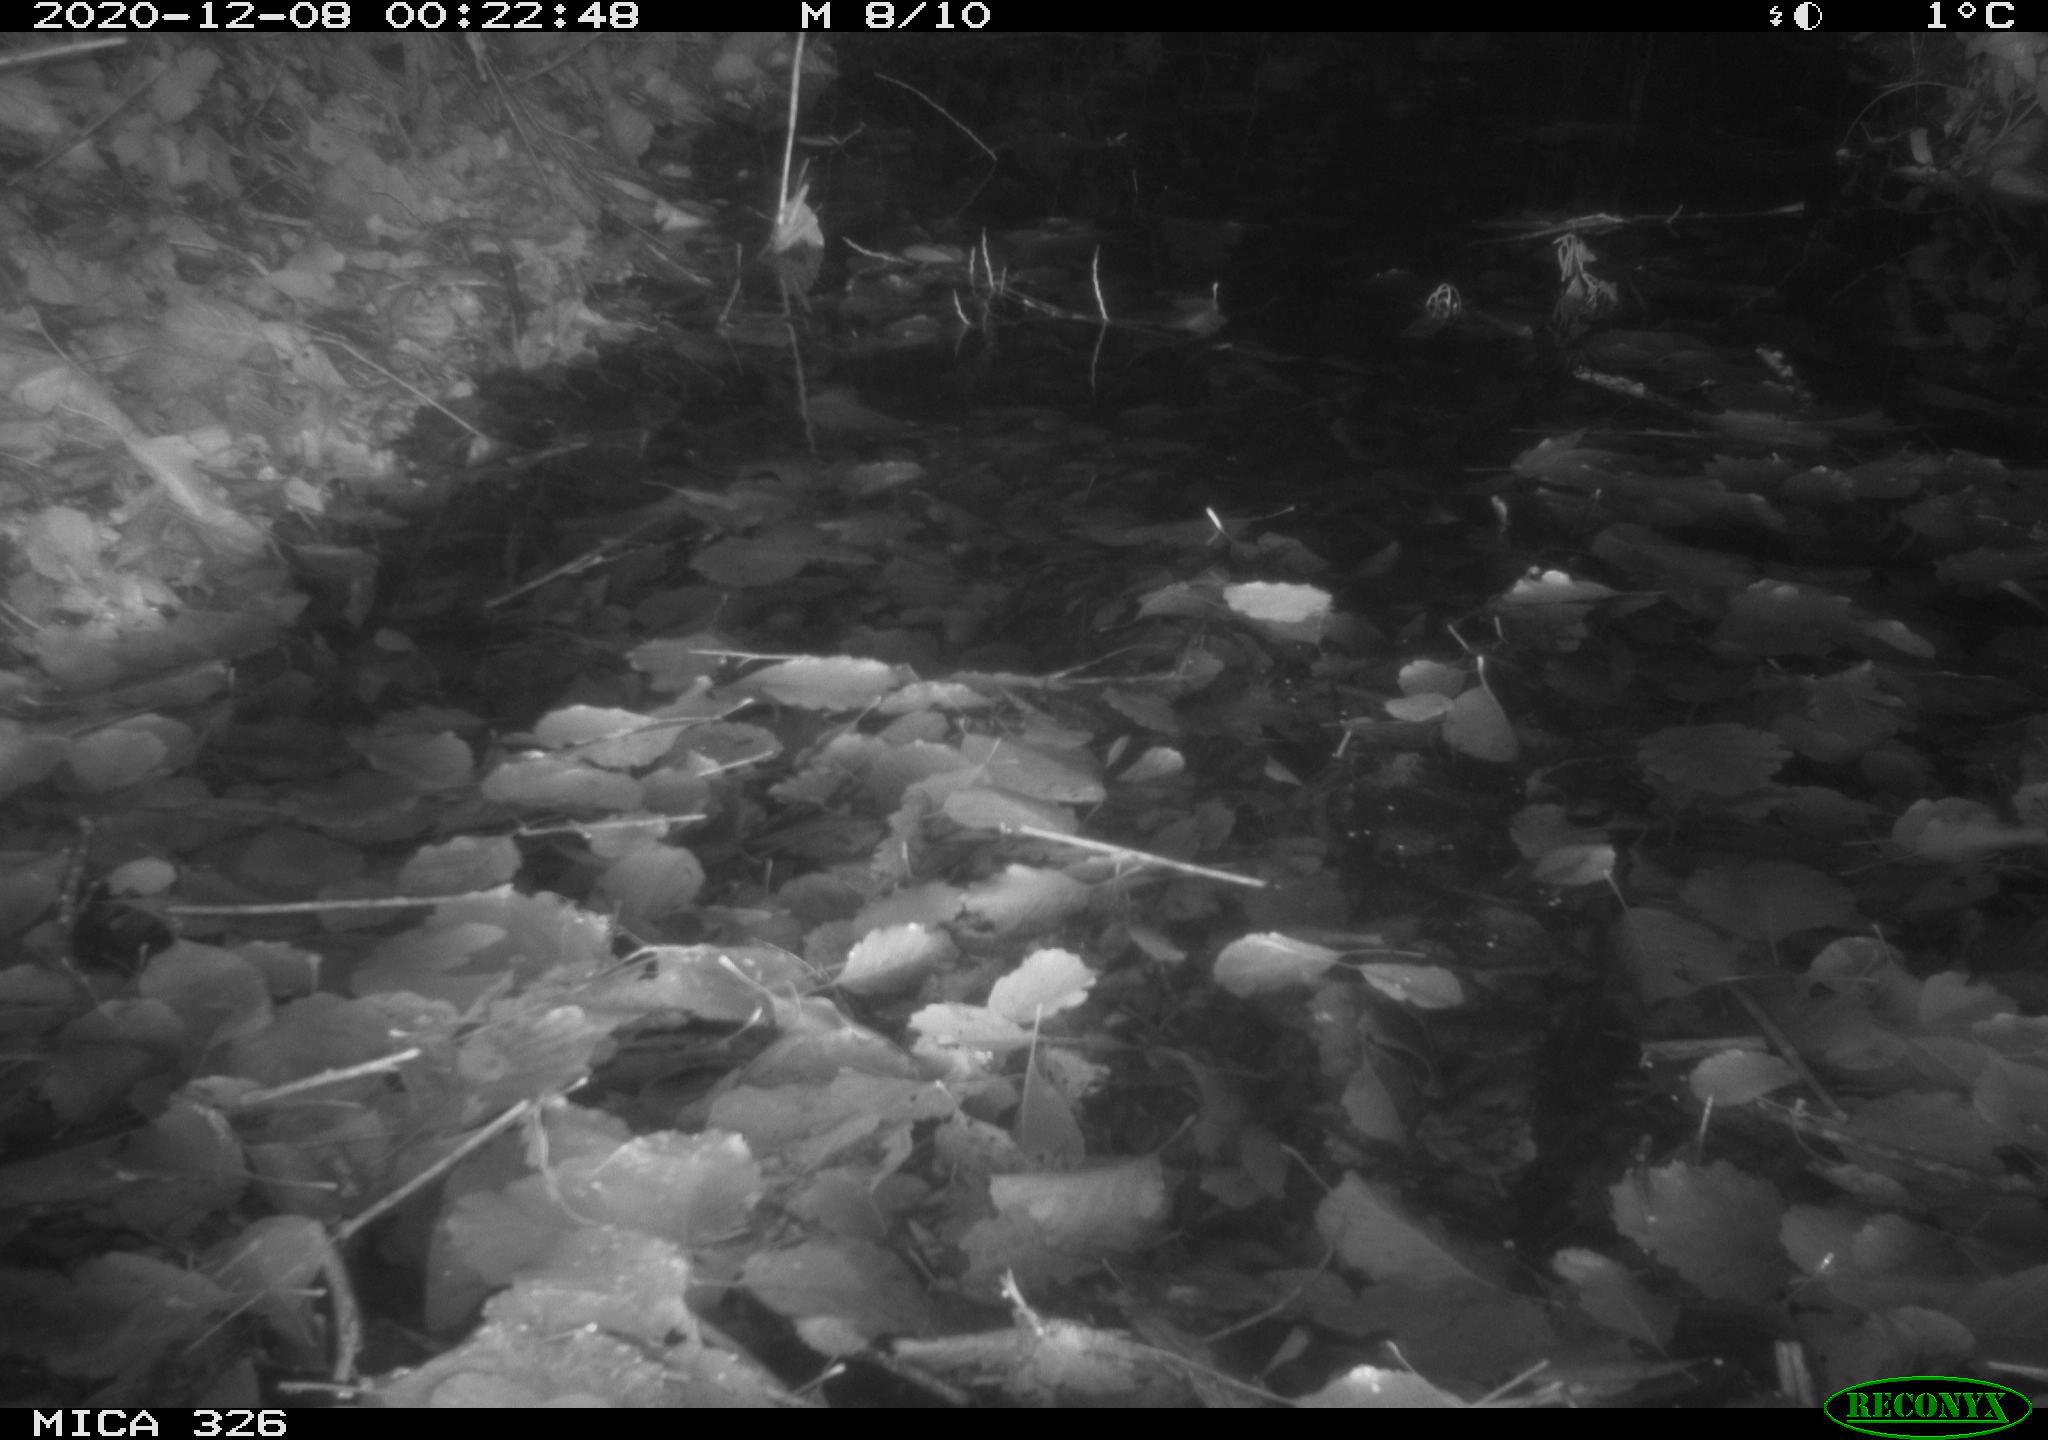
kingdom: Animalia
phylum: Chordata
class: Mammalia
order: Rodentia
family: Muridae
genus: Rattus
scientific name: Rattus norvegicus
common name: Brown rat
